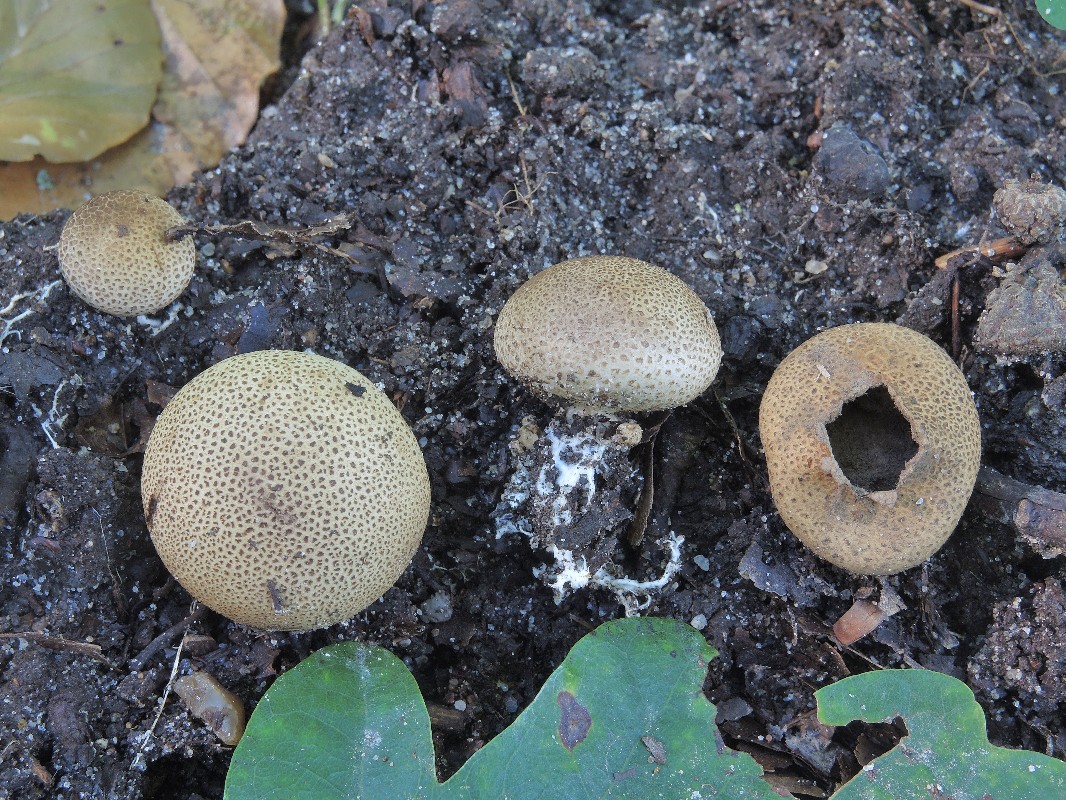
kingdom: Fungi
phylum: Basidiomycota
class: Agaricomycetes
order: Boletales
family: Sclerodermataceae
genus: Scleroderma
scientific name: Scleroderma areolatum
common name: plettet bruskbold
